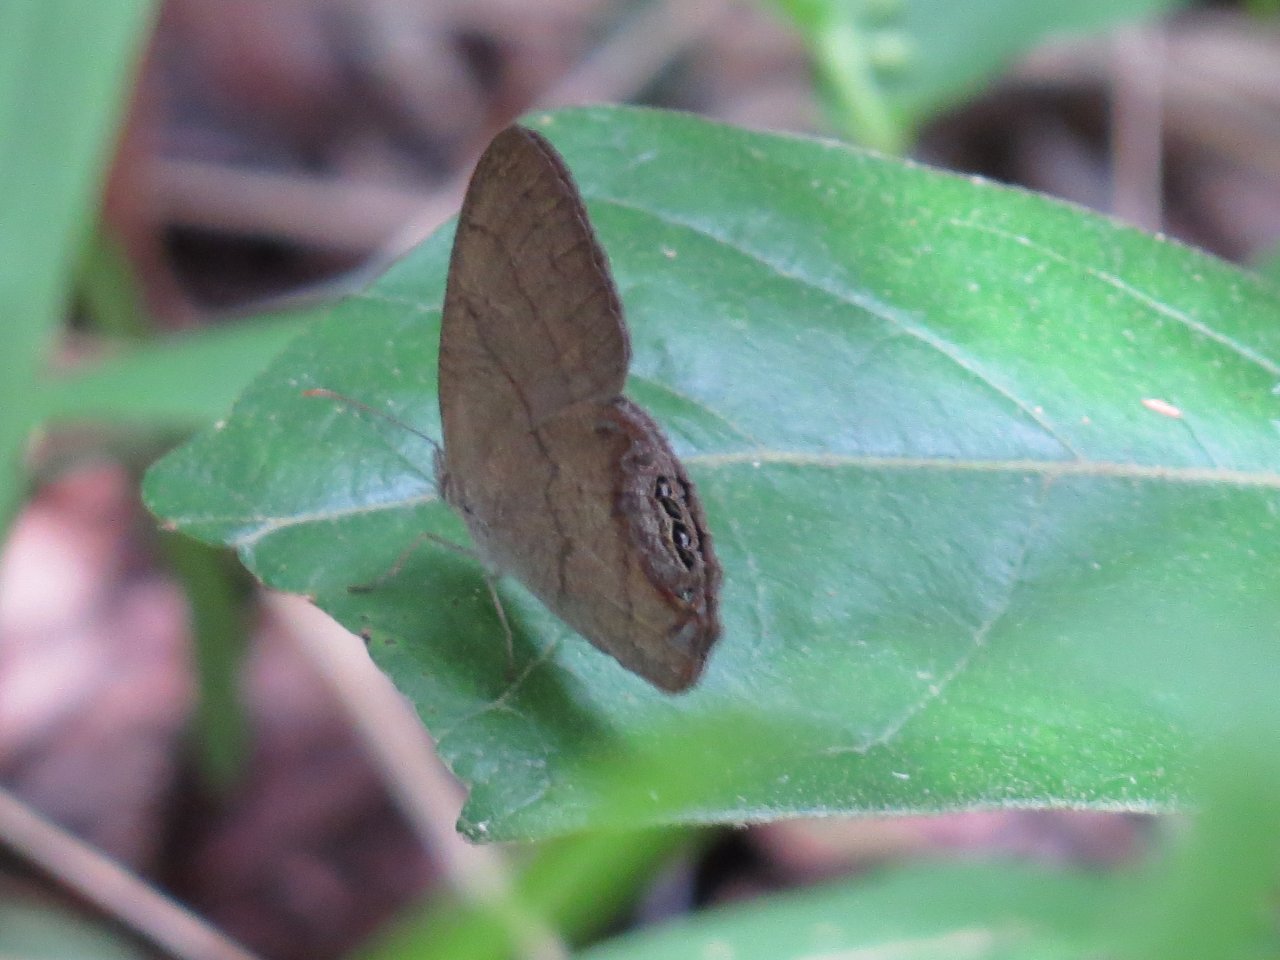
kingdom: Animalia
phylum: Arthropoda
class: Insecta
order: Lepidoptera
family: Nymphalidae
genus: Euptychia
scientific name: Euptychia cornelius
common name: Gemmed Satyr
